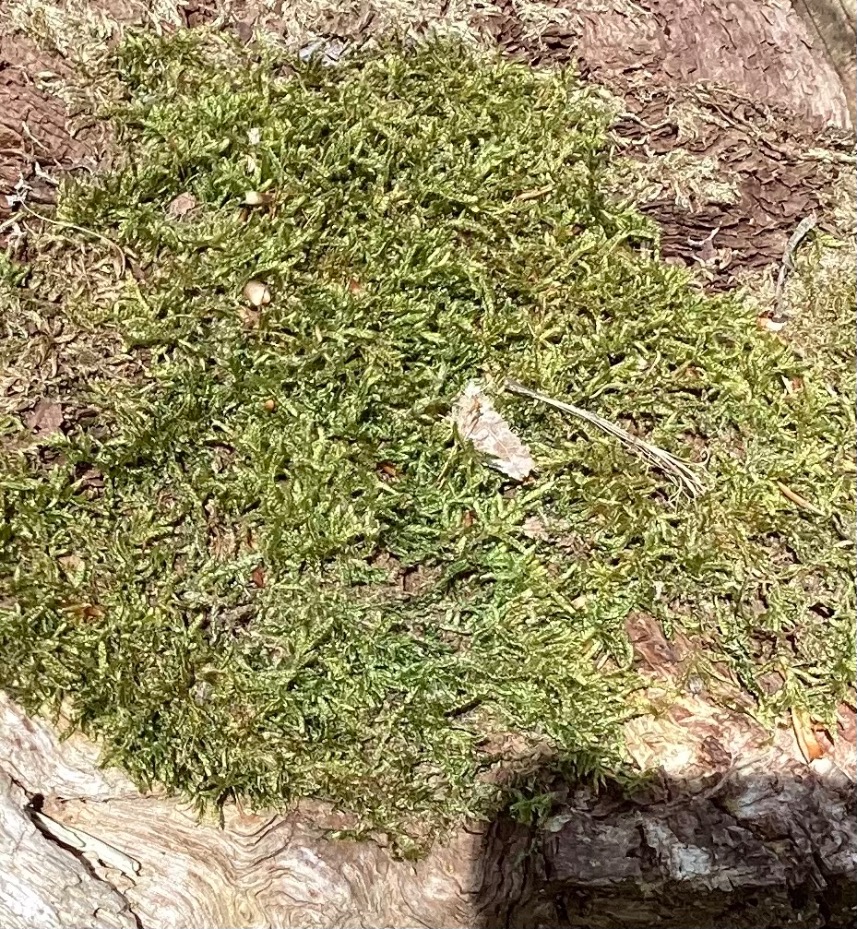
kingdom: Plantae
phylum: Bryophyta
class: Bryopsida
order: Hypnales
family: Hypnaceae
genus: Hypnum
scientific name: Hypnum cupressiforme
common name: Almindelig cypresmos
